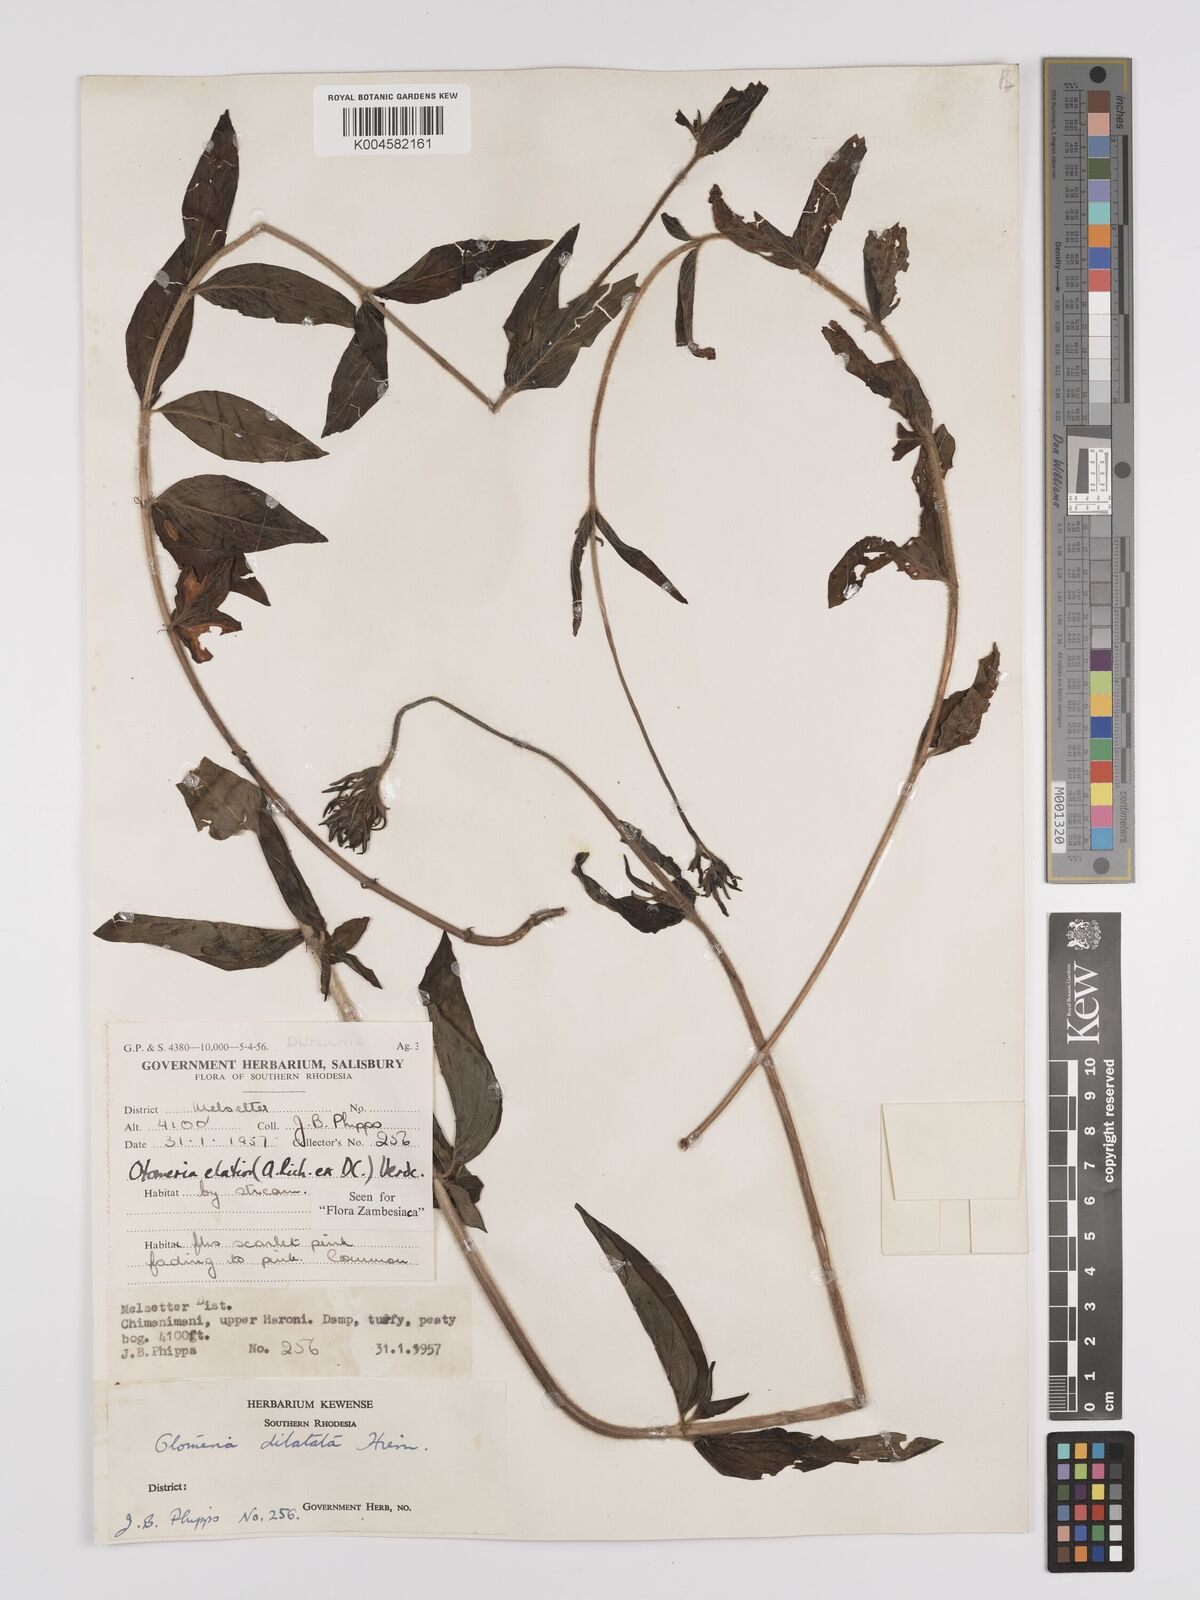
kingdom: Plantae
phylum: Tracheophyta
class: Magnoliopsida
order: Gentianales
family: Rubiaceae
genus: Otomeria
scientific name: Otomeria elatior
